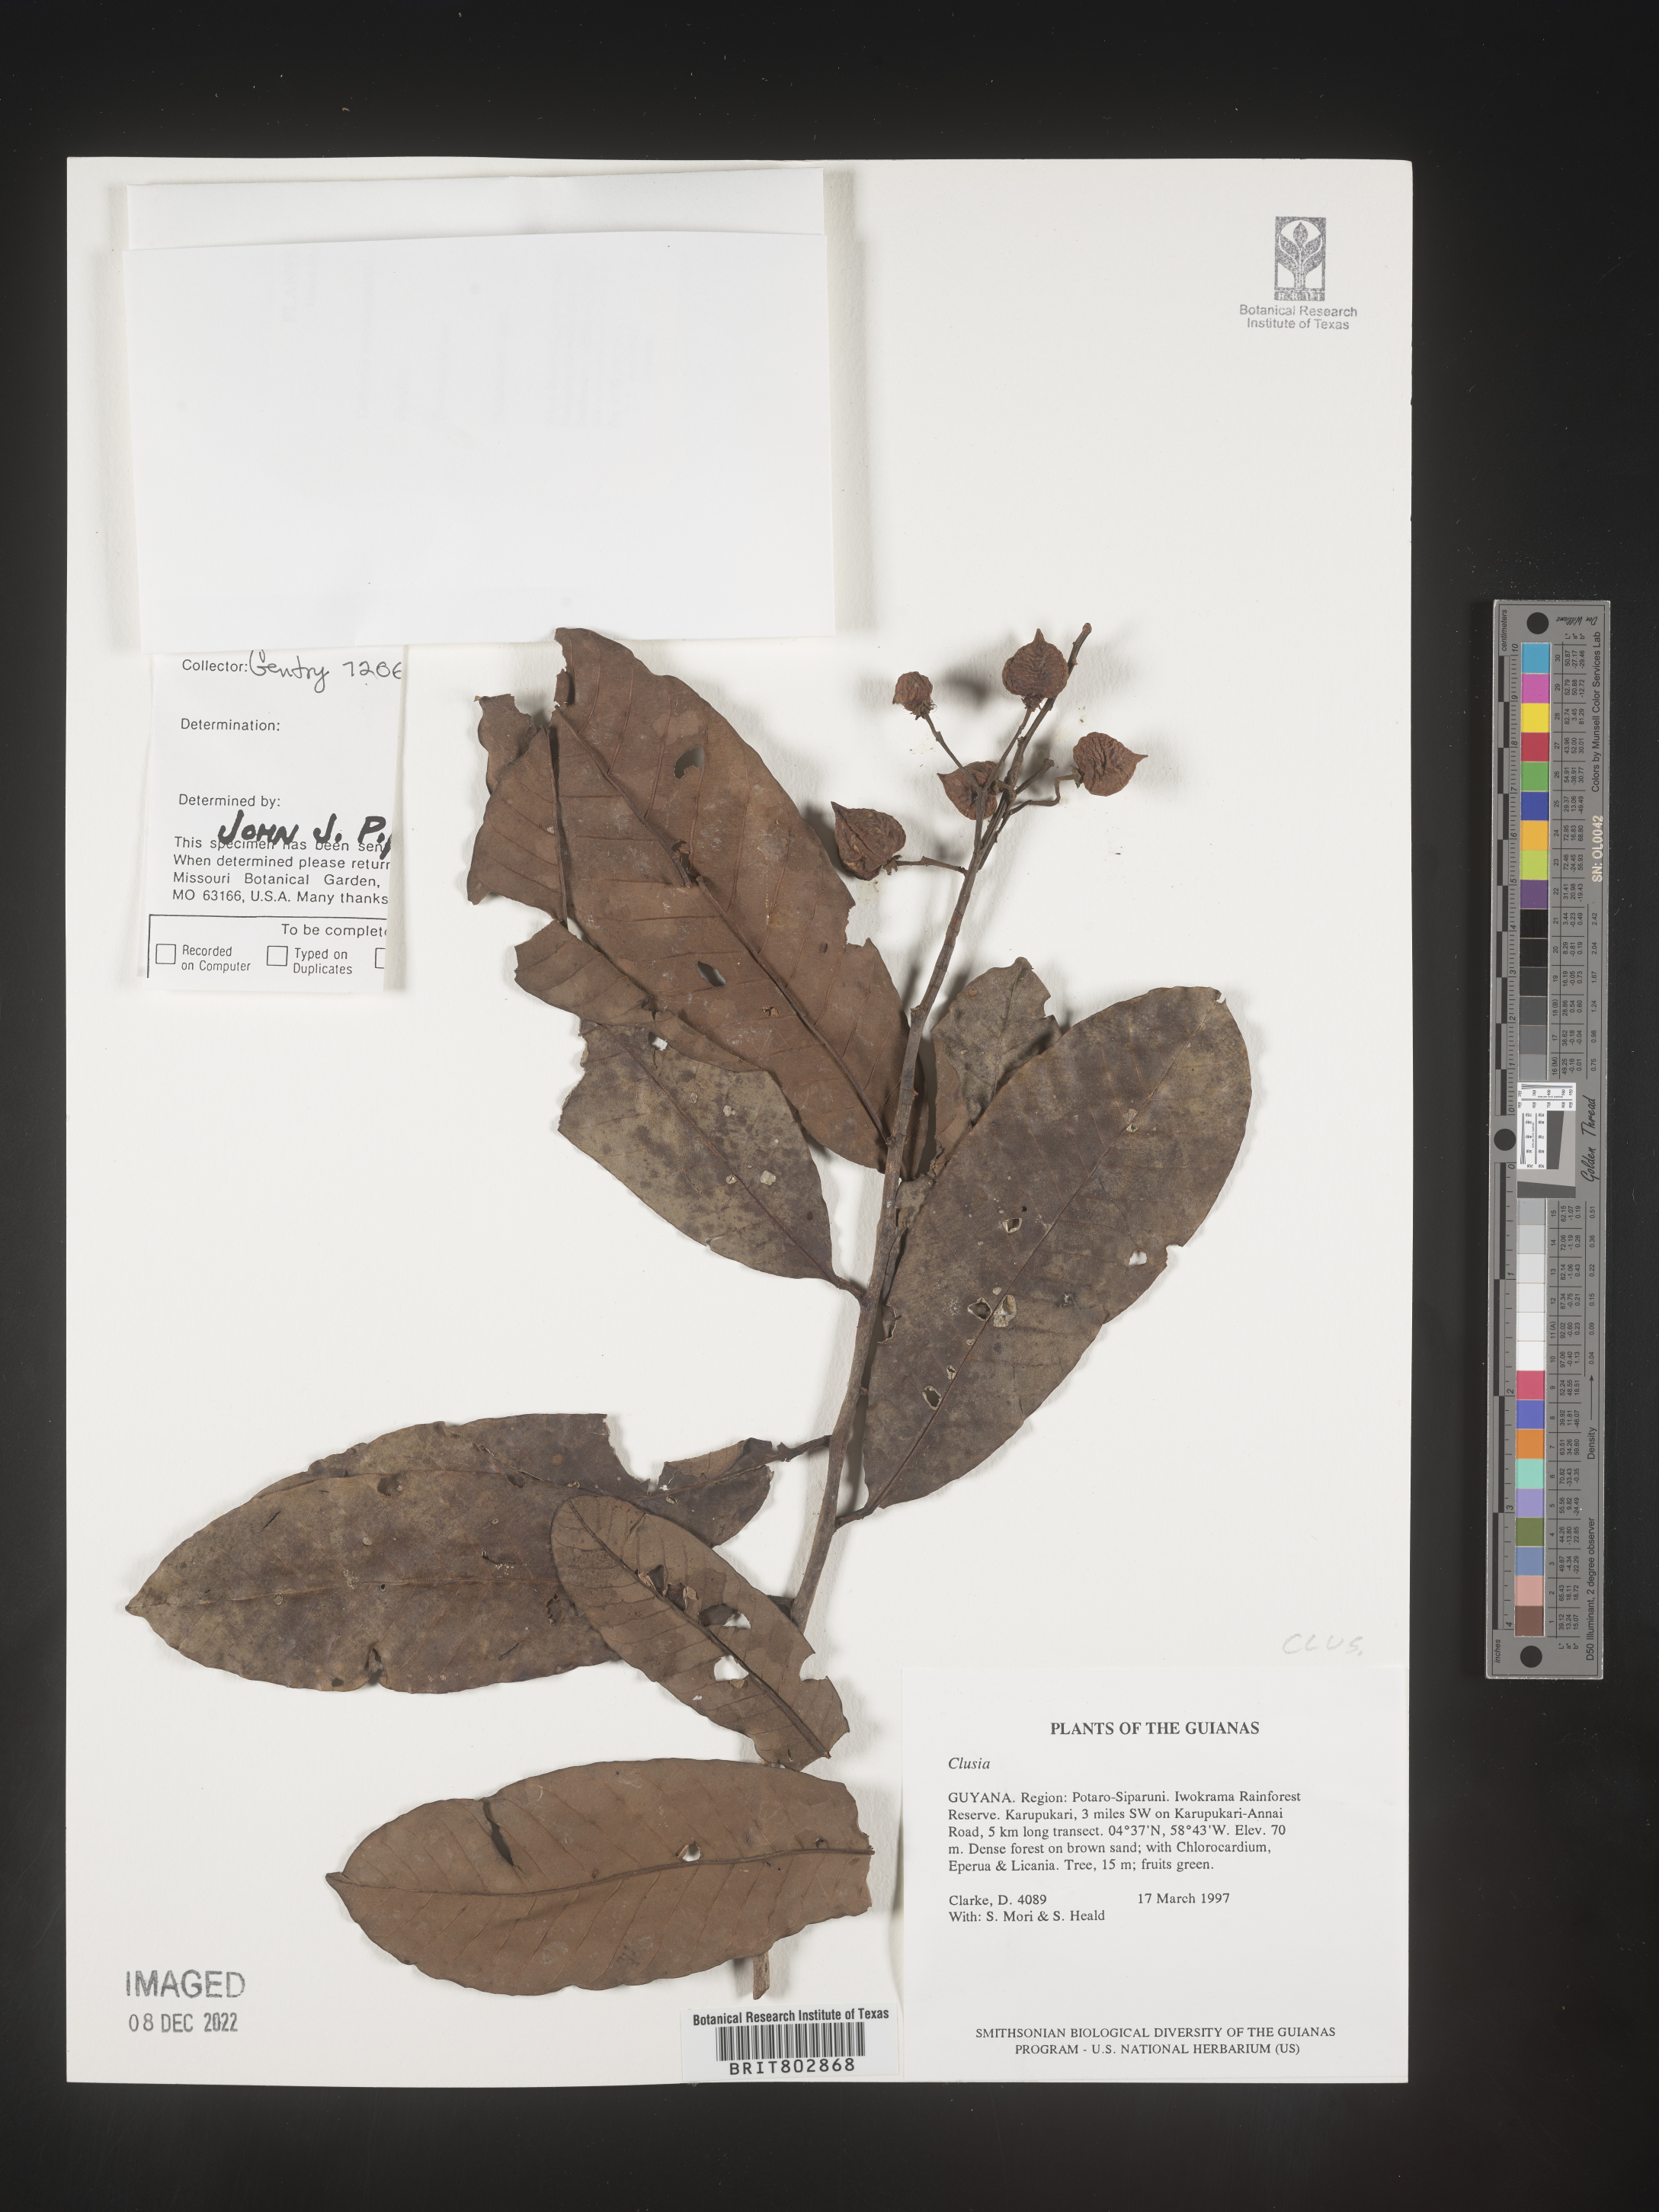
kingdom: Plantae
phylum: Tracheophyta
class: Magnoliopsida
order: Malpighiales
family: Clusiaceae
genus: Clusia
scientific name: Clusia
